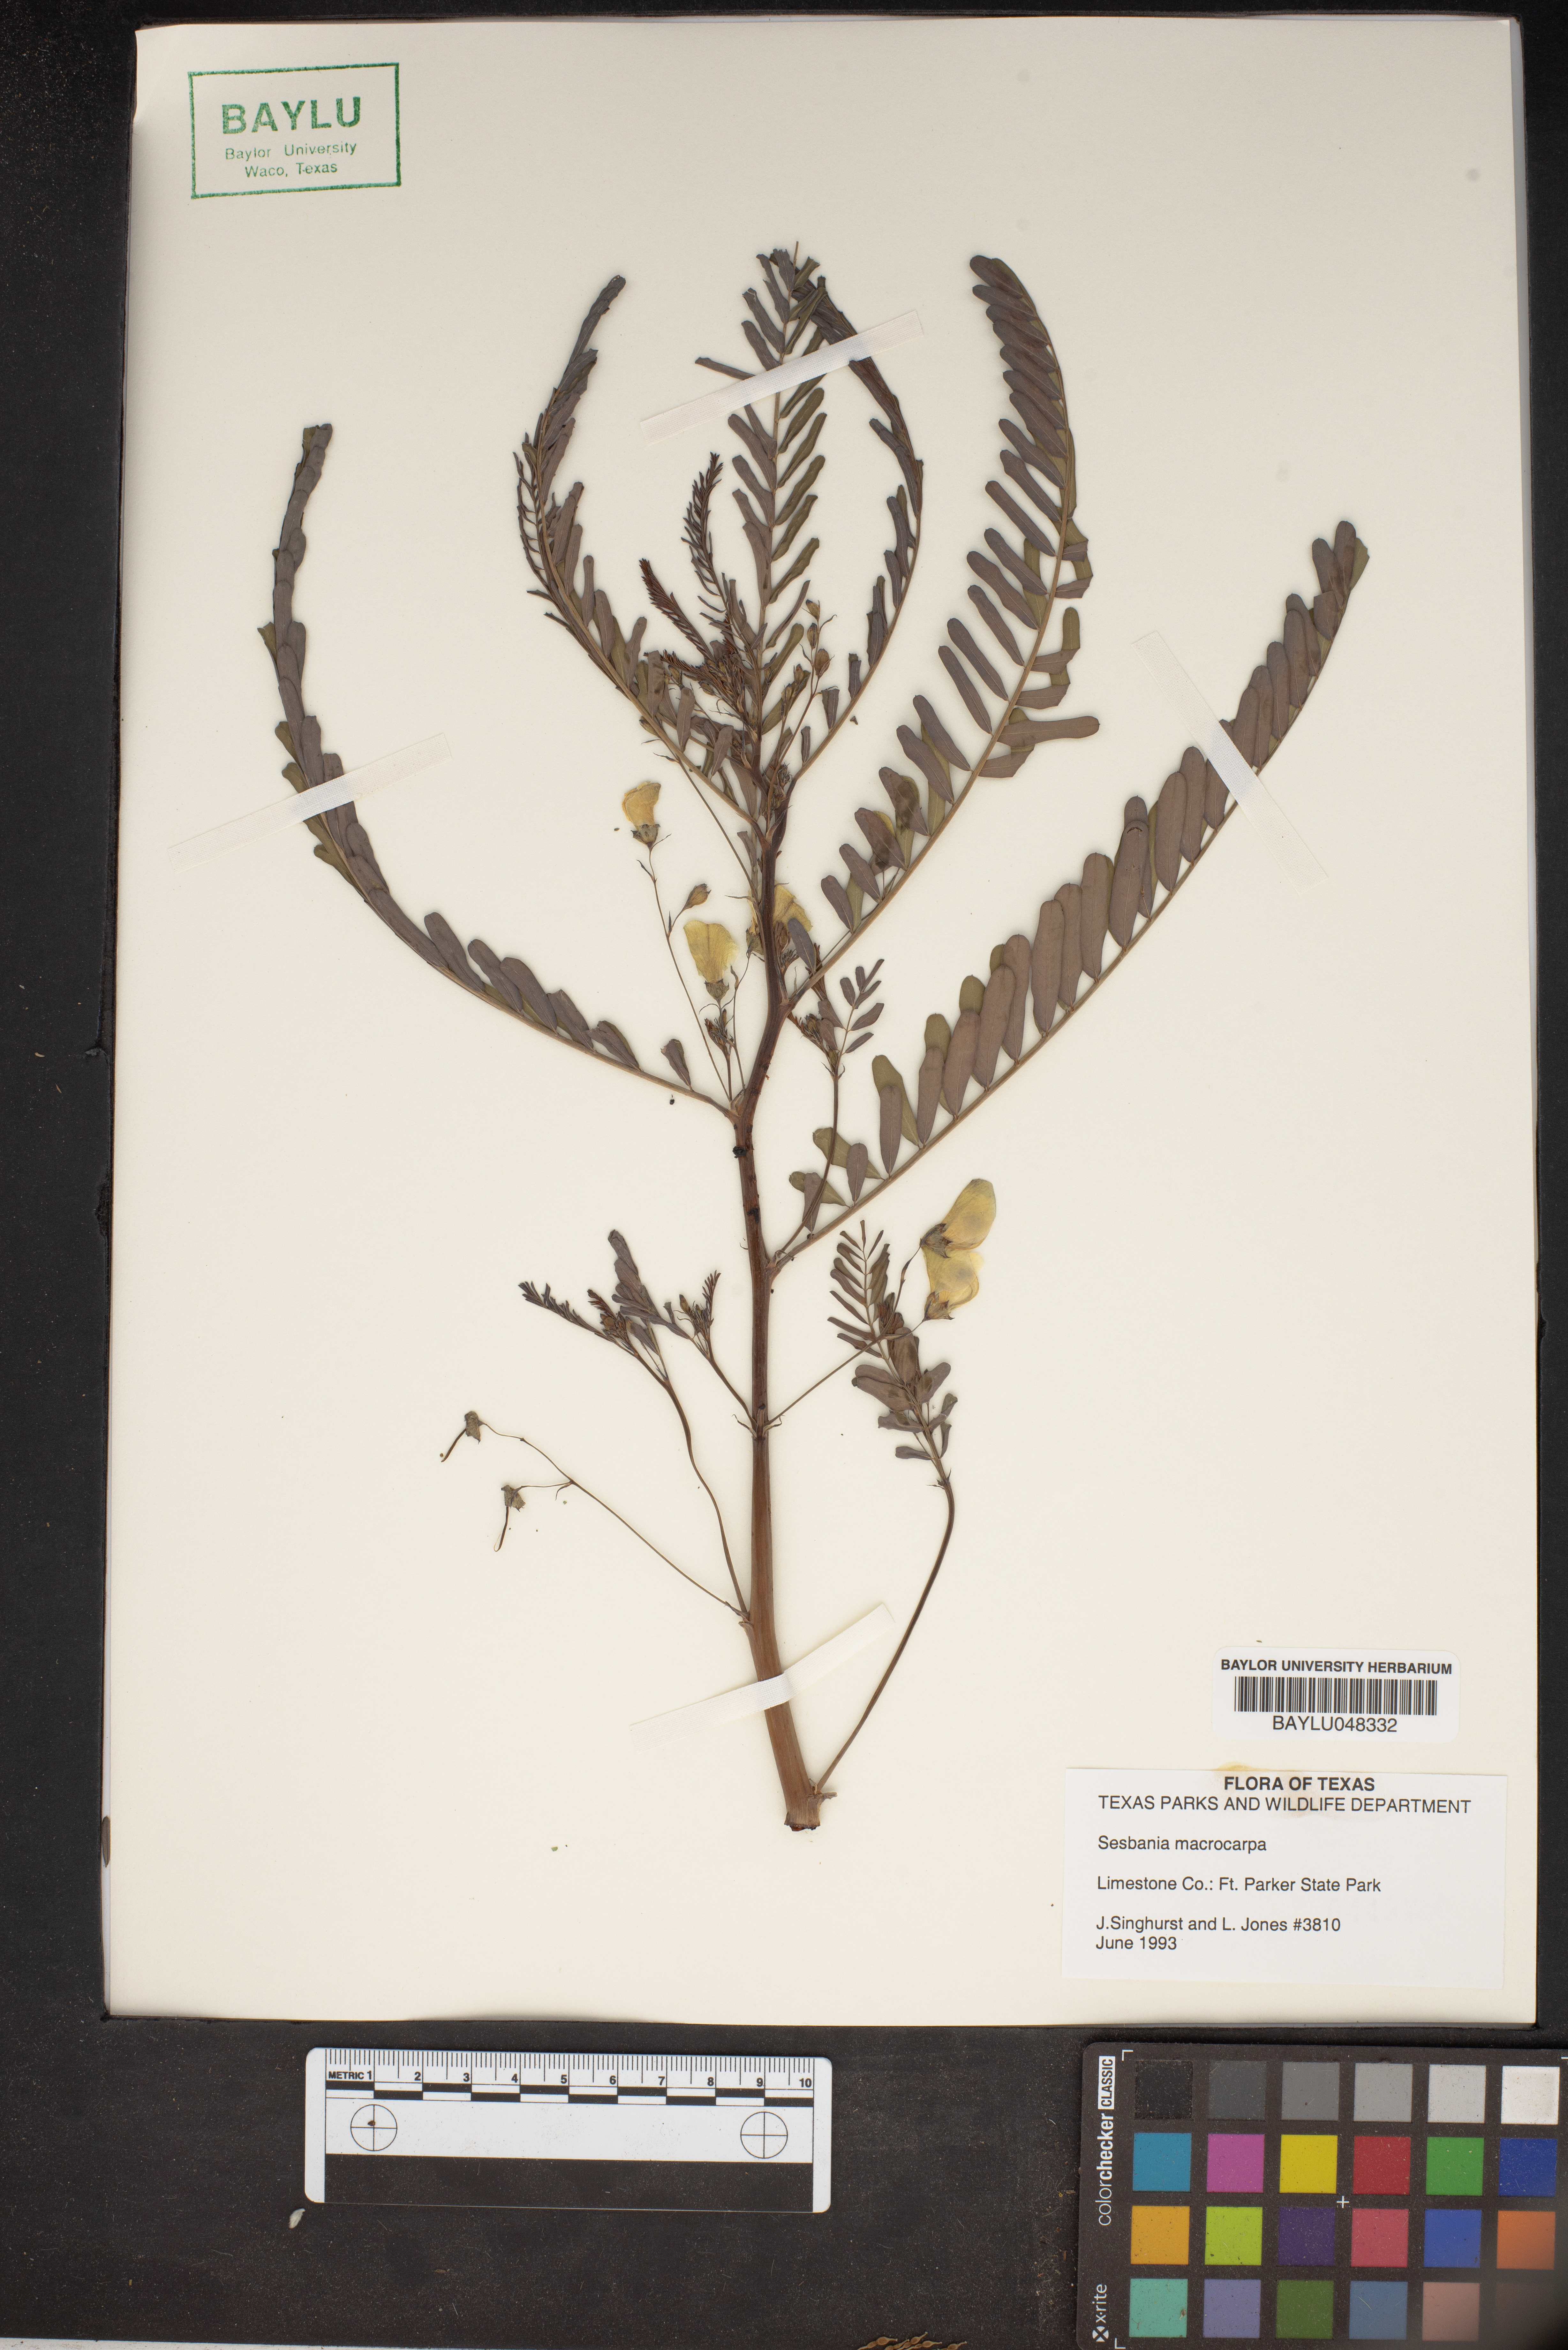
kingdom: Plantae
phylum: Tracheophyta
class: Magnoliopsida
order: Fabales
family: Fabaceae
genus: Sesbania
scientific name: Sesbania vesicaria
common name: Bagpod
